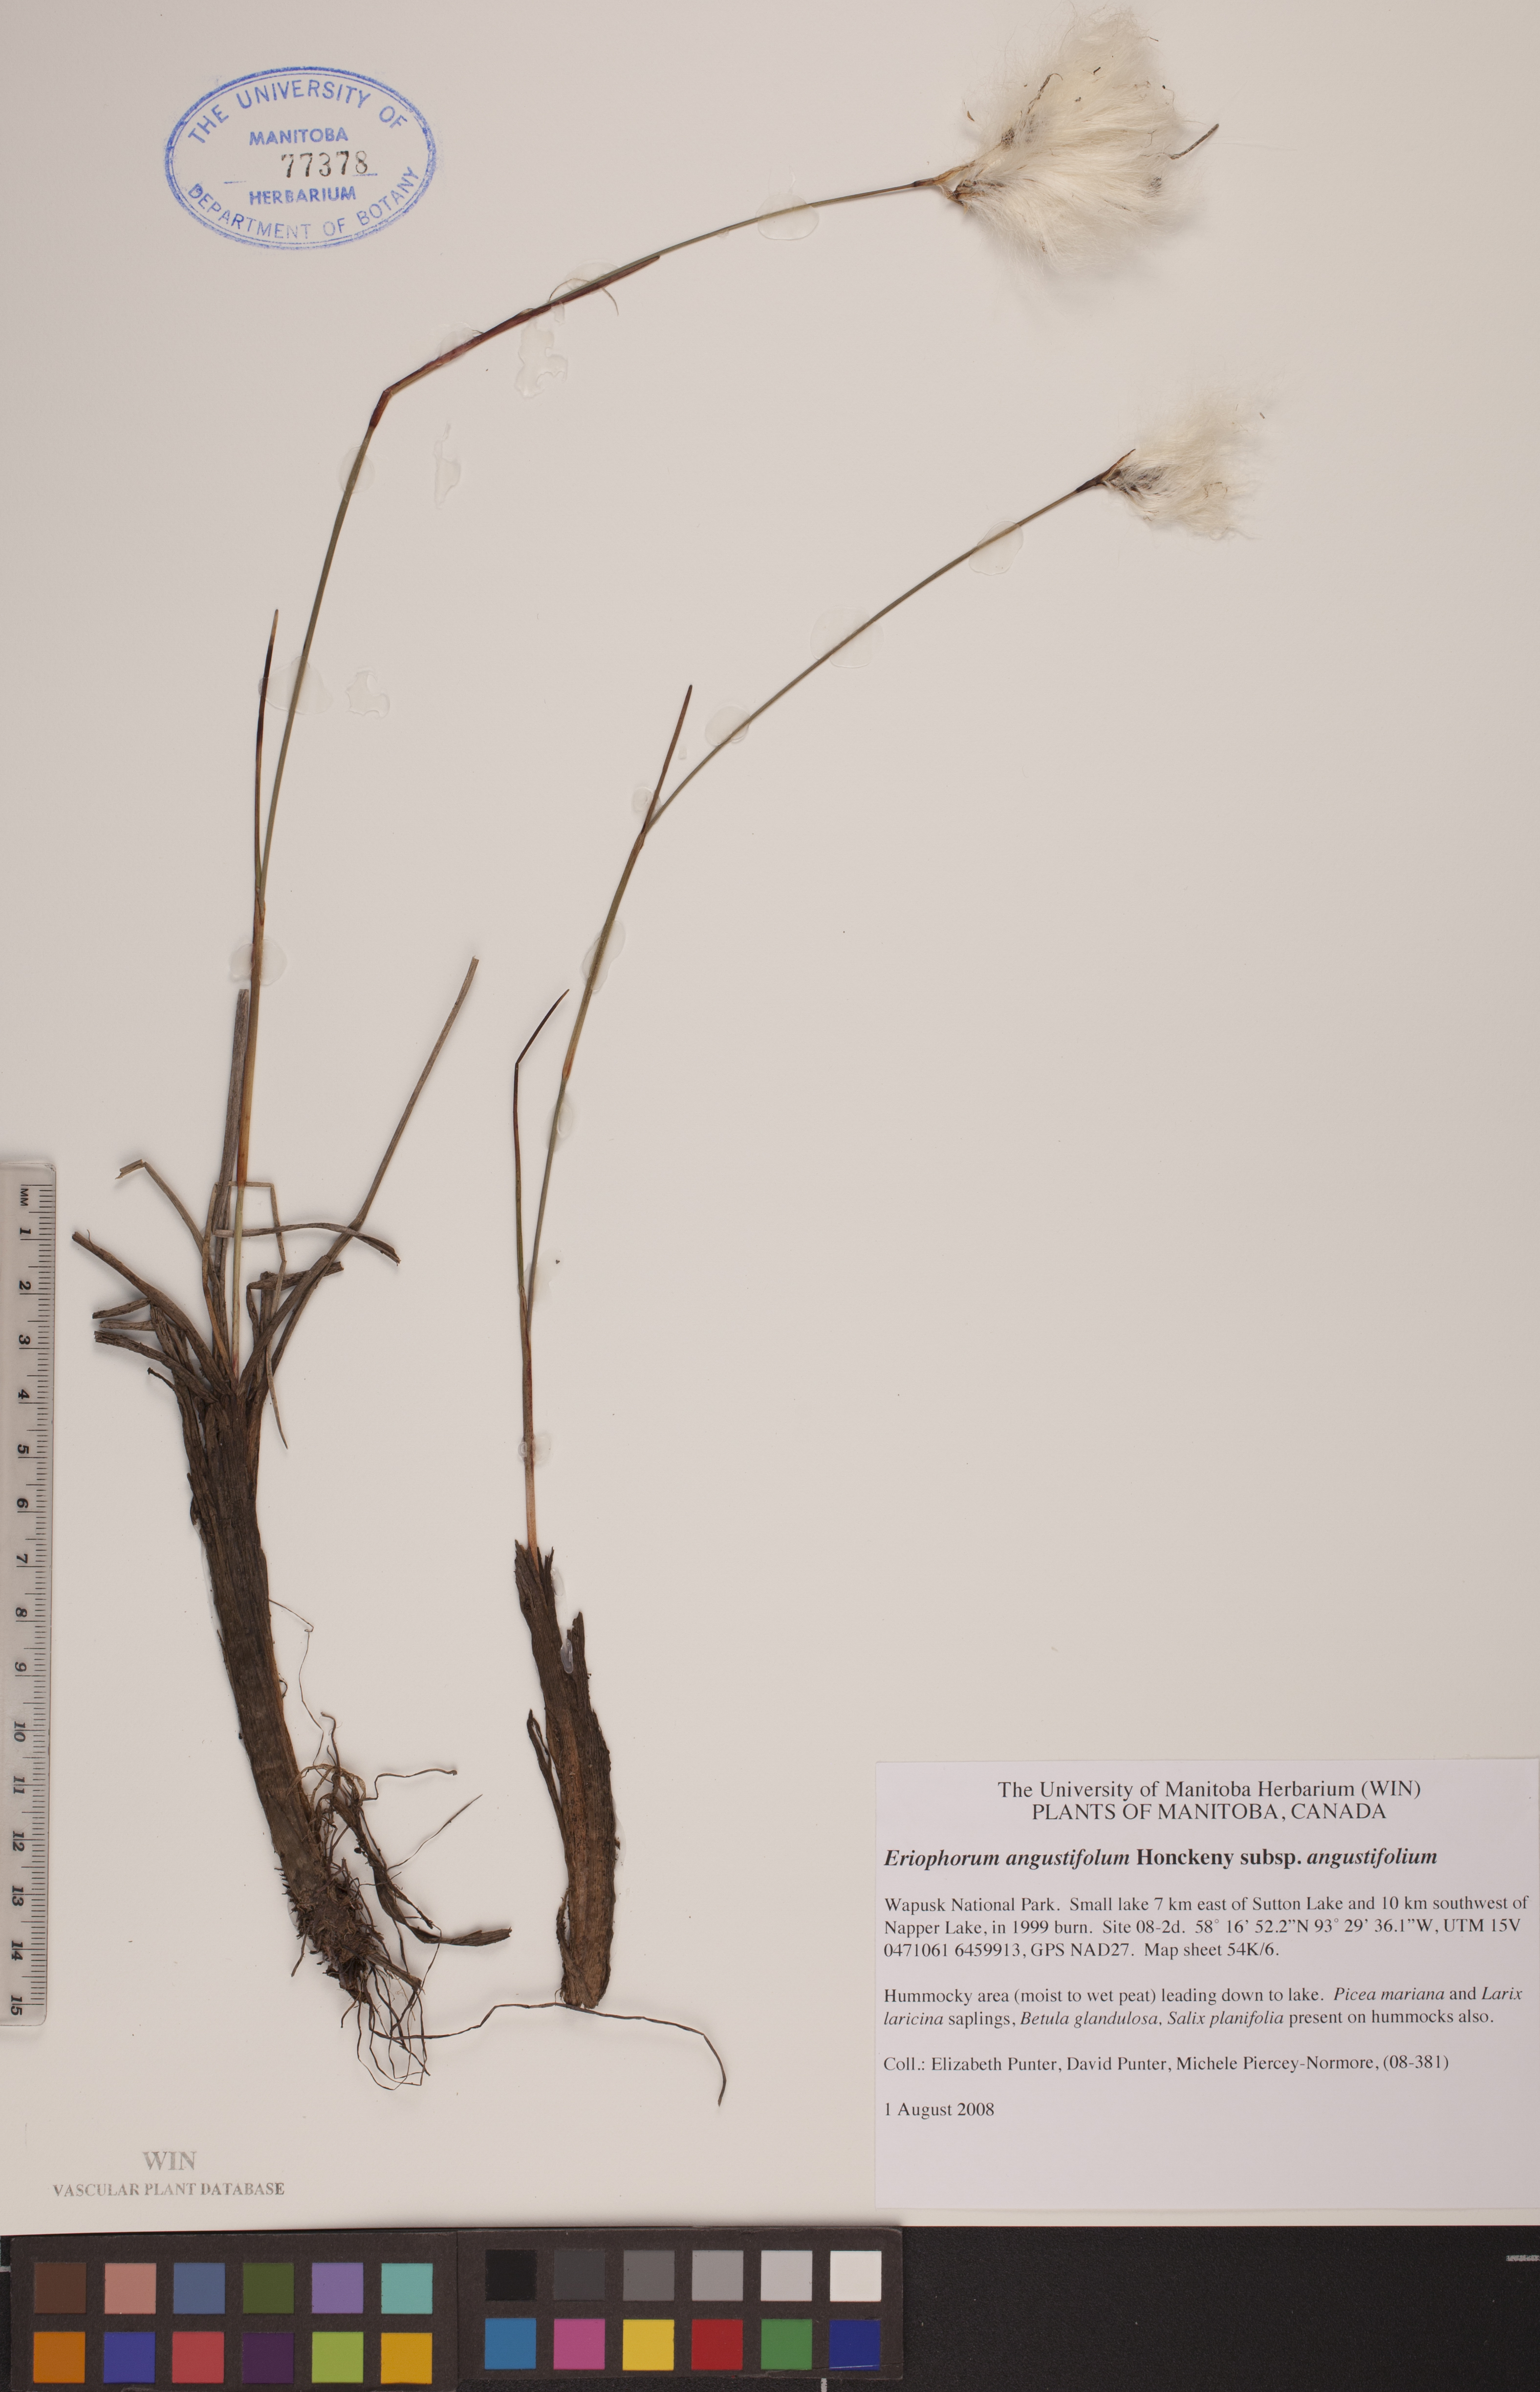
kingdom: Plantae
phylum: Tracheophyta
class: Liliopsida
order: Poales
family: Cyperaceae
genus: Eriophorum
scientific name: Eriophorum angustifolium
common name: Common cottongrass
